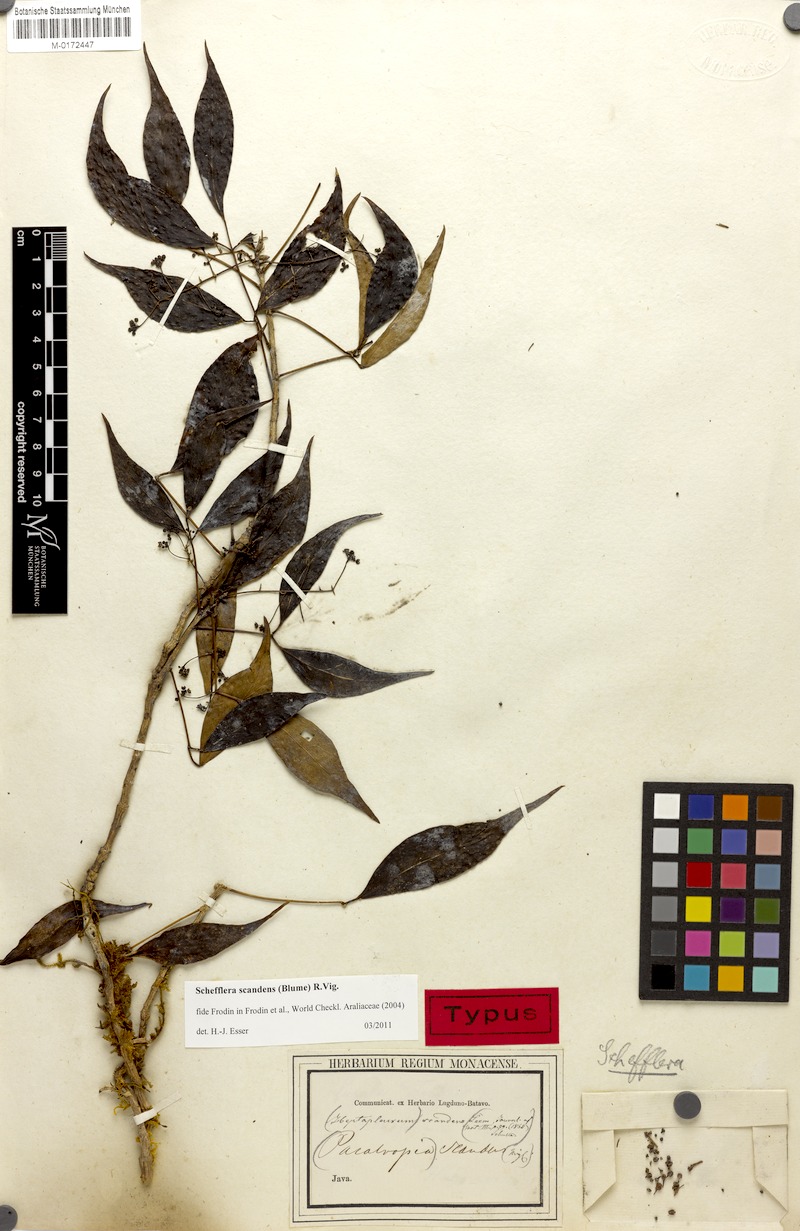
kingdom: Plantae
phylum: Tracheophyta
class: Magnoliopsida
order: Apiales
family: Araliaceae
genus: Heptapleurum
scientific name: Heptapleurum scandens
